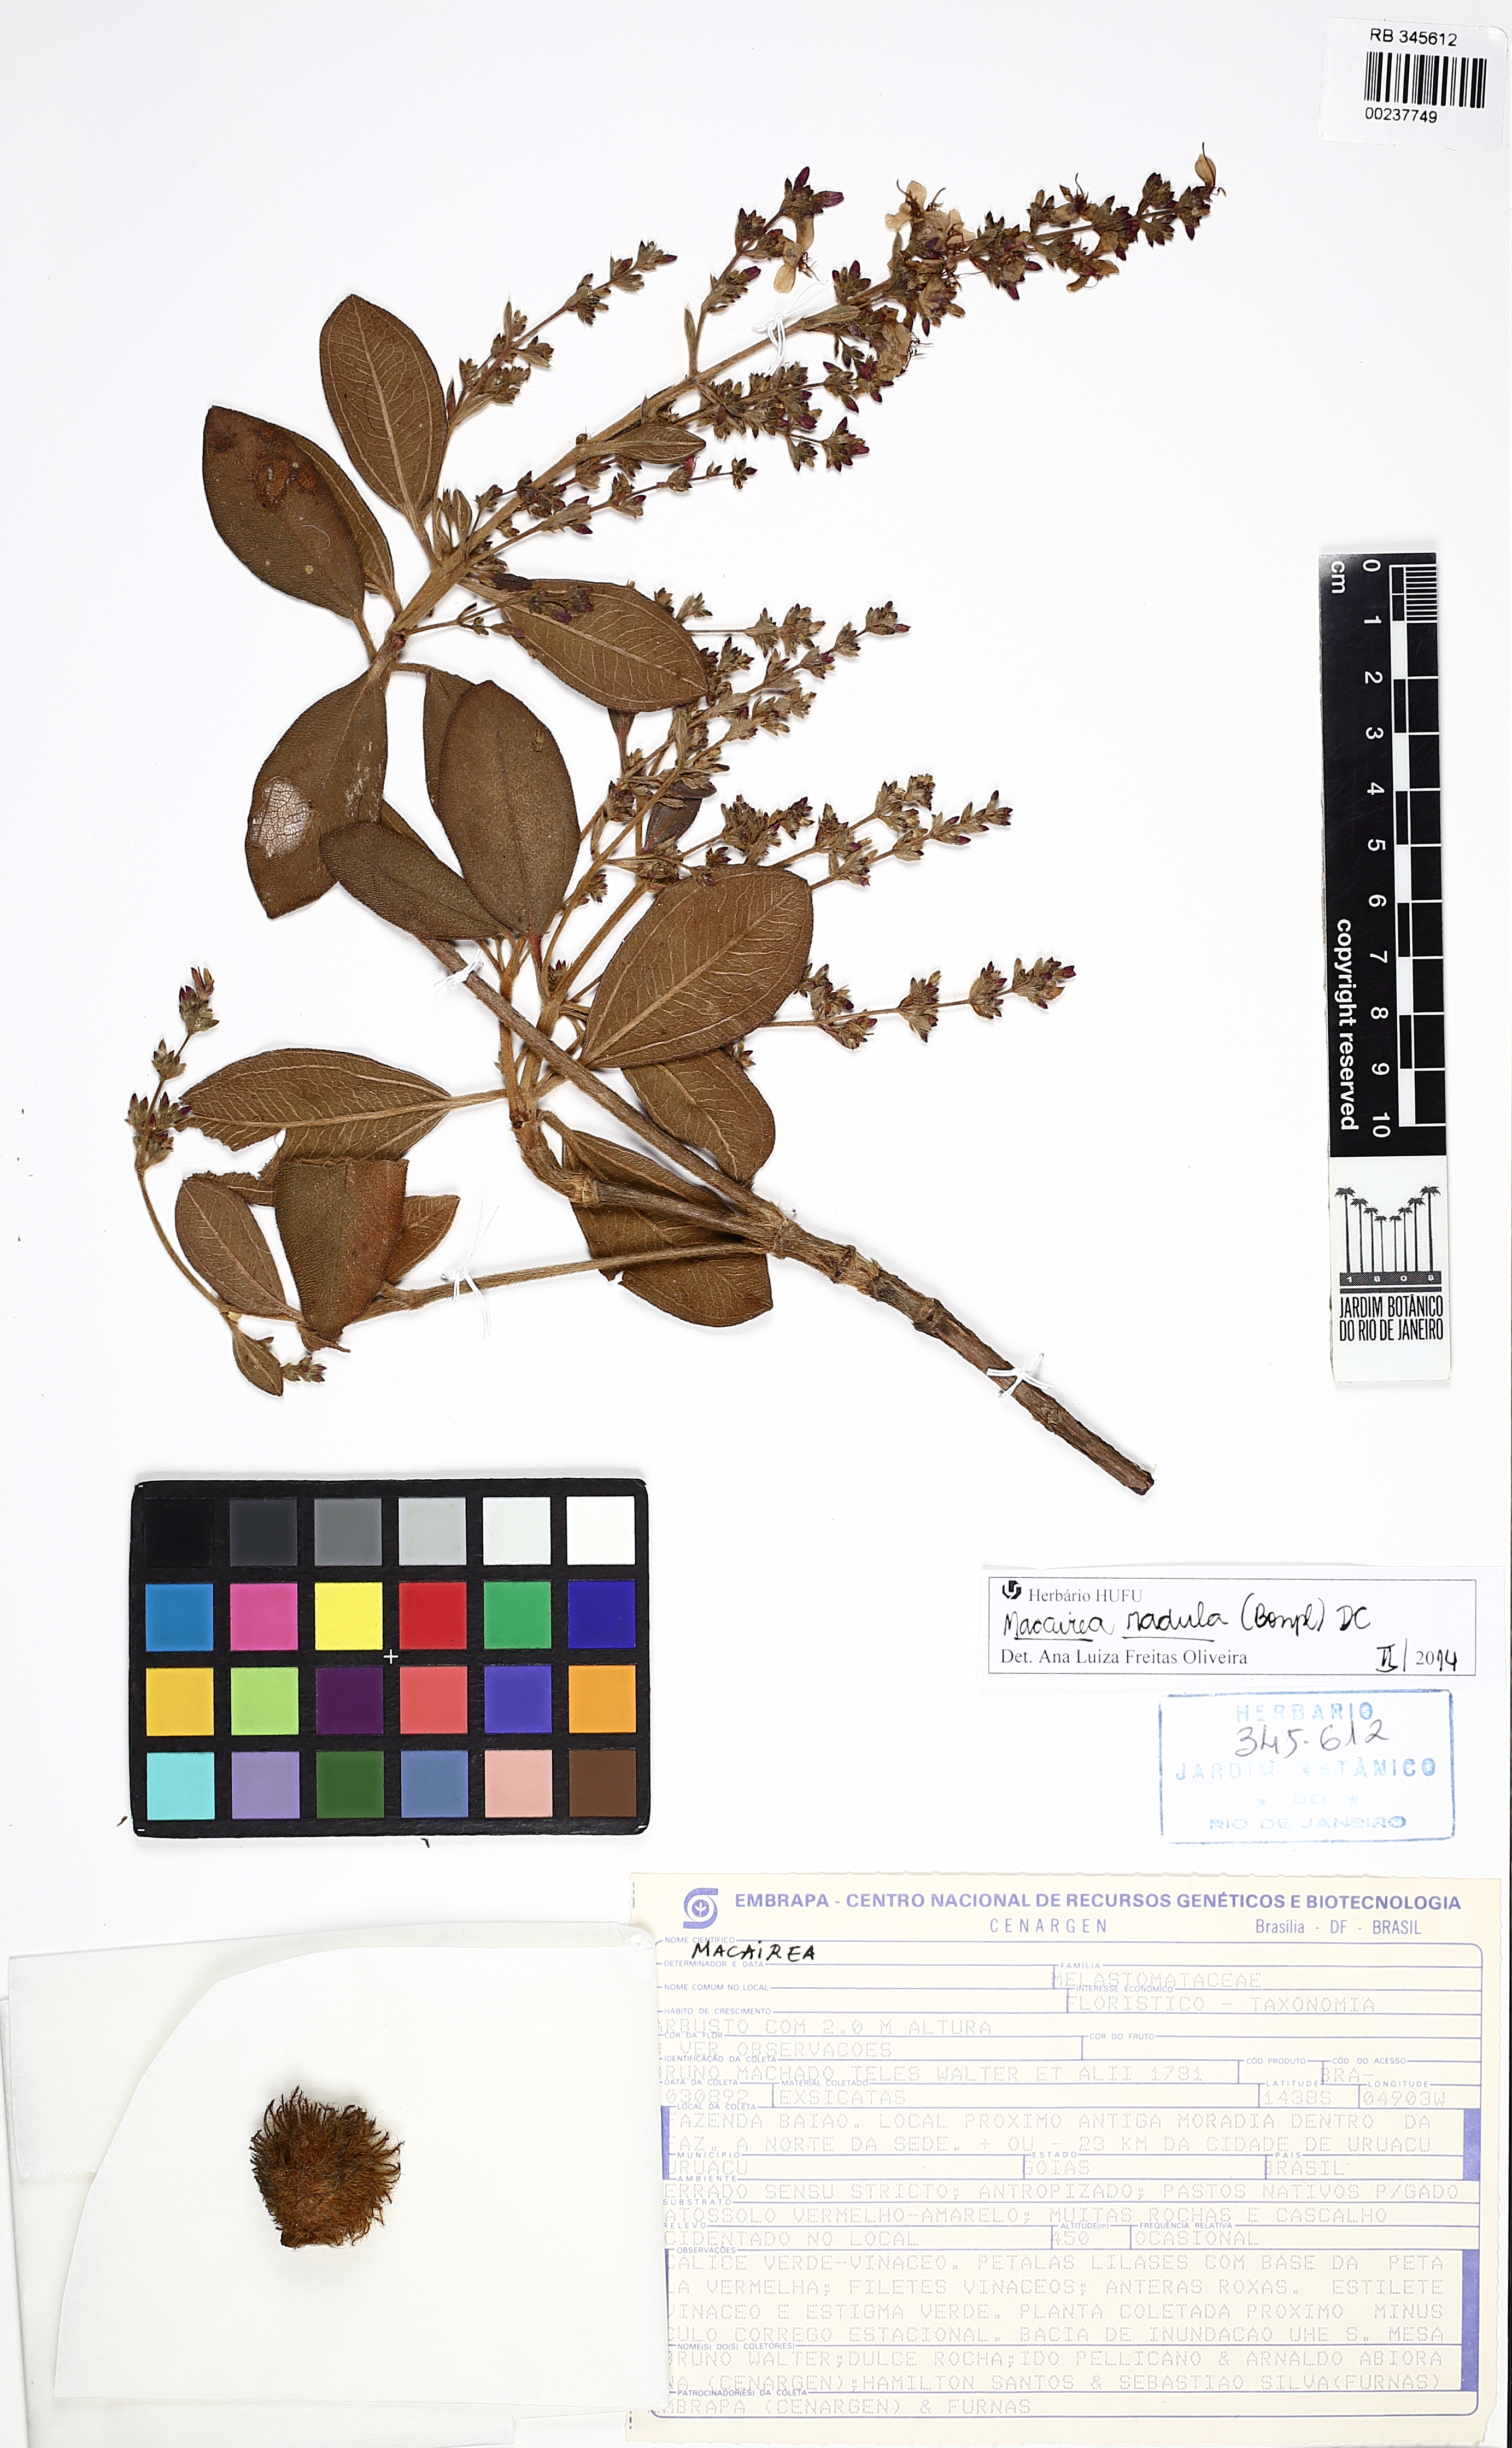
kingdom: Plantae
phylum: Tracheophyta
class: Magnoliopsida
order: Myrtales
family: Melastomataceae
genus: Macairea
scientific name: Macairea radula
